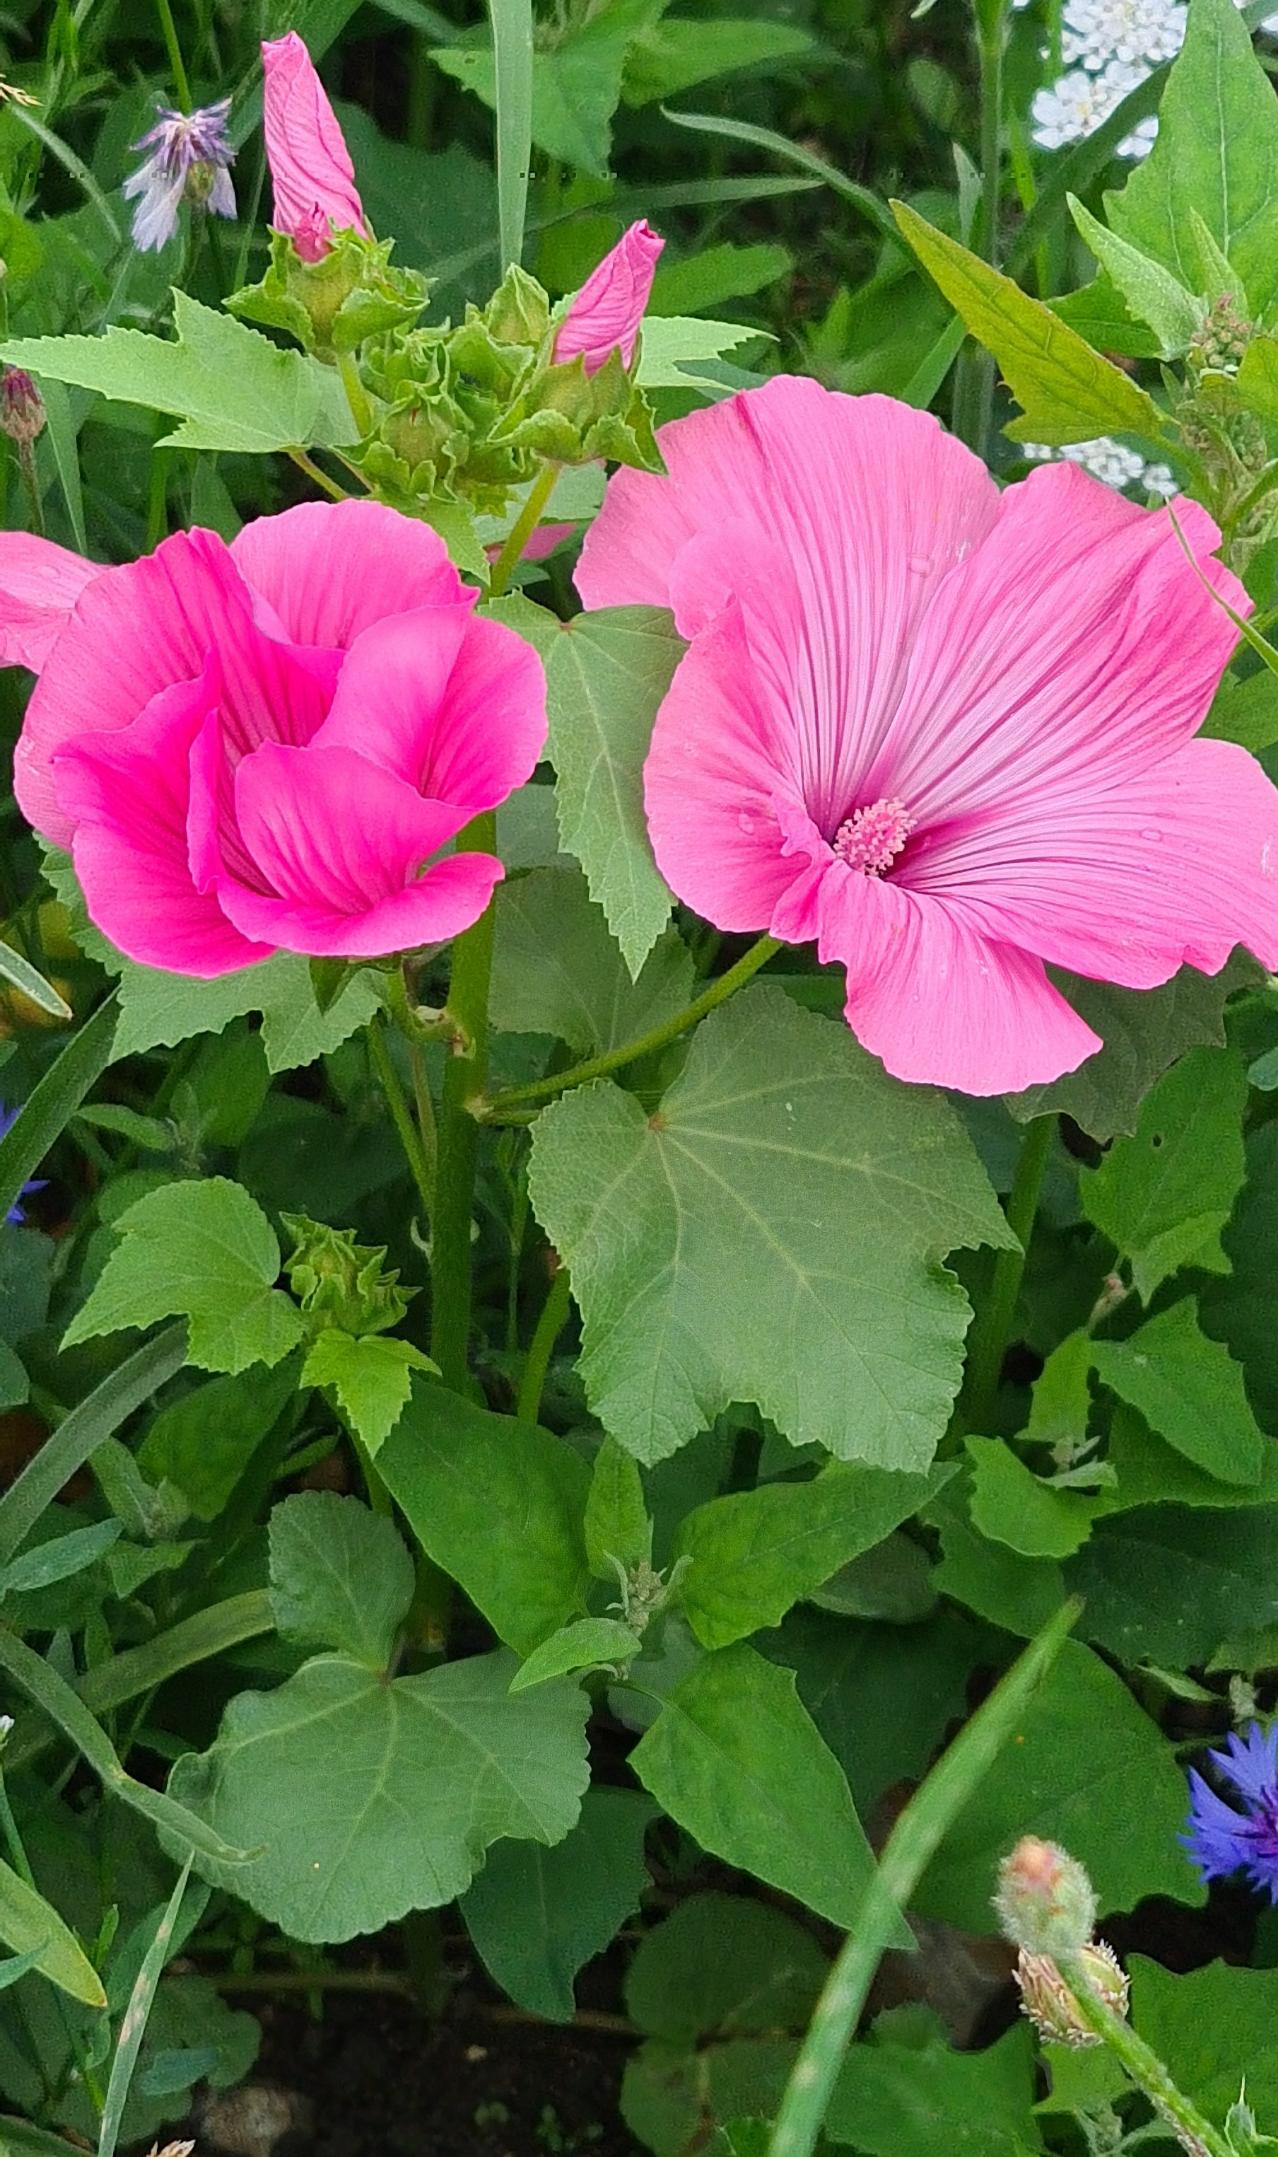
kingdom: Plantae
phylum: Tracheophyta
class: Magnoliopsida
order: Malvales
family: Malvaceae
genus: Malope
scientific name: Malope trifida
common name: Trompetkatost
